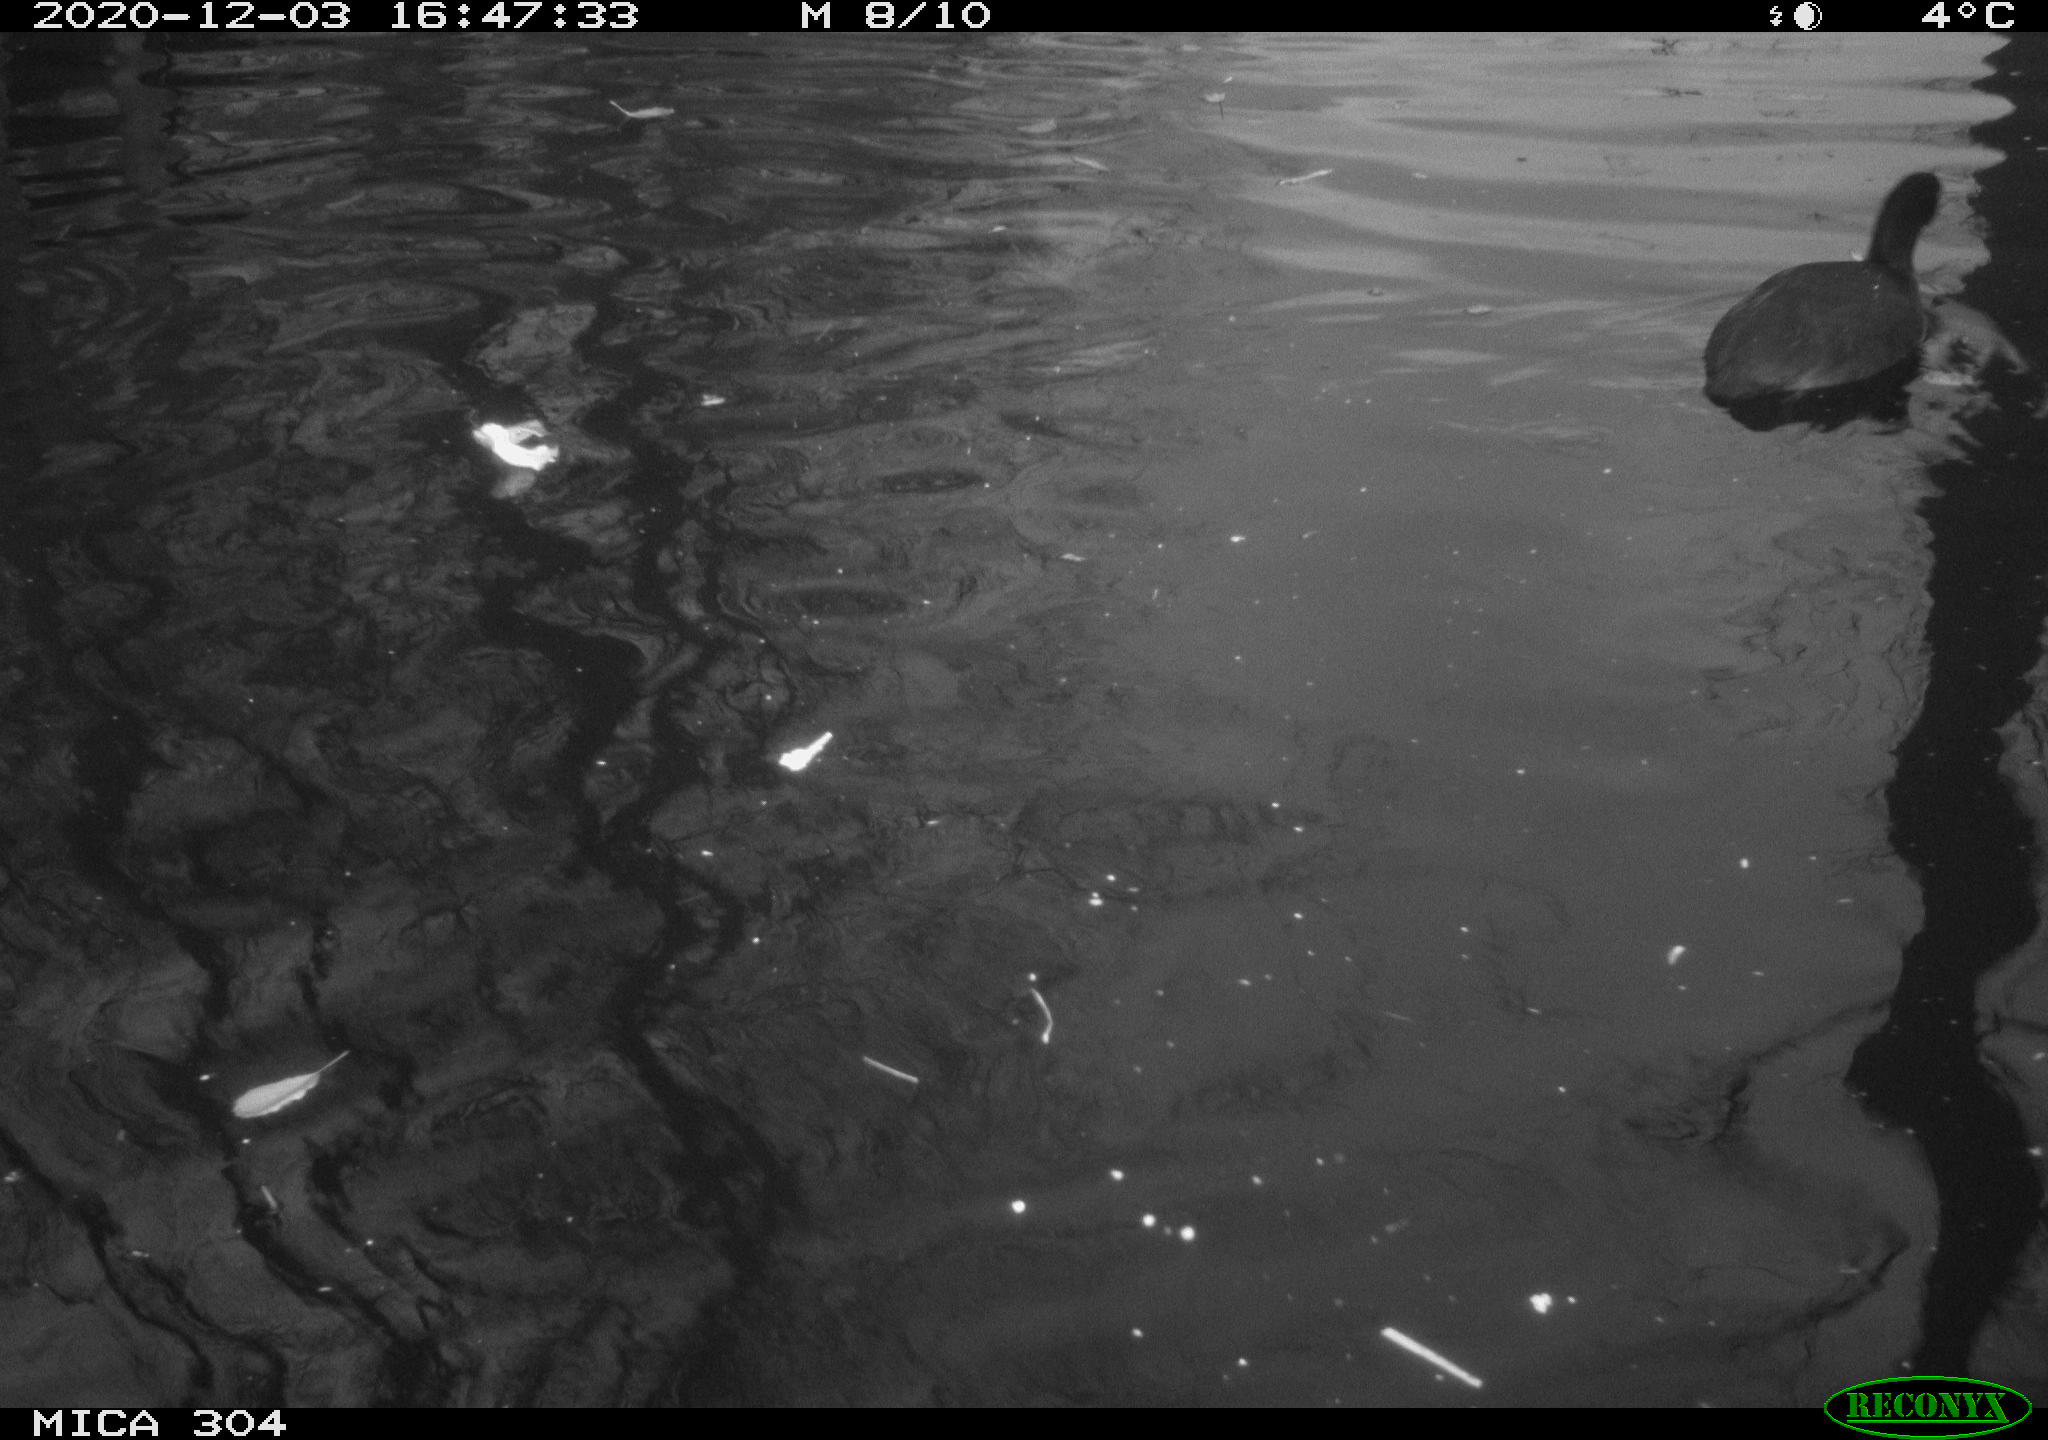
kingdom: Animalia
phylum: Chordata
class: Aves
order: Gruiformes
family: Rallidae
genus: Fulica
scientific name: Fulica atra
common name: Eurasian coot
